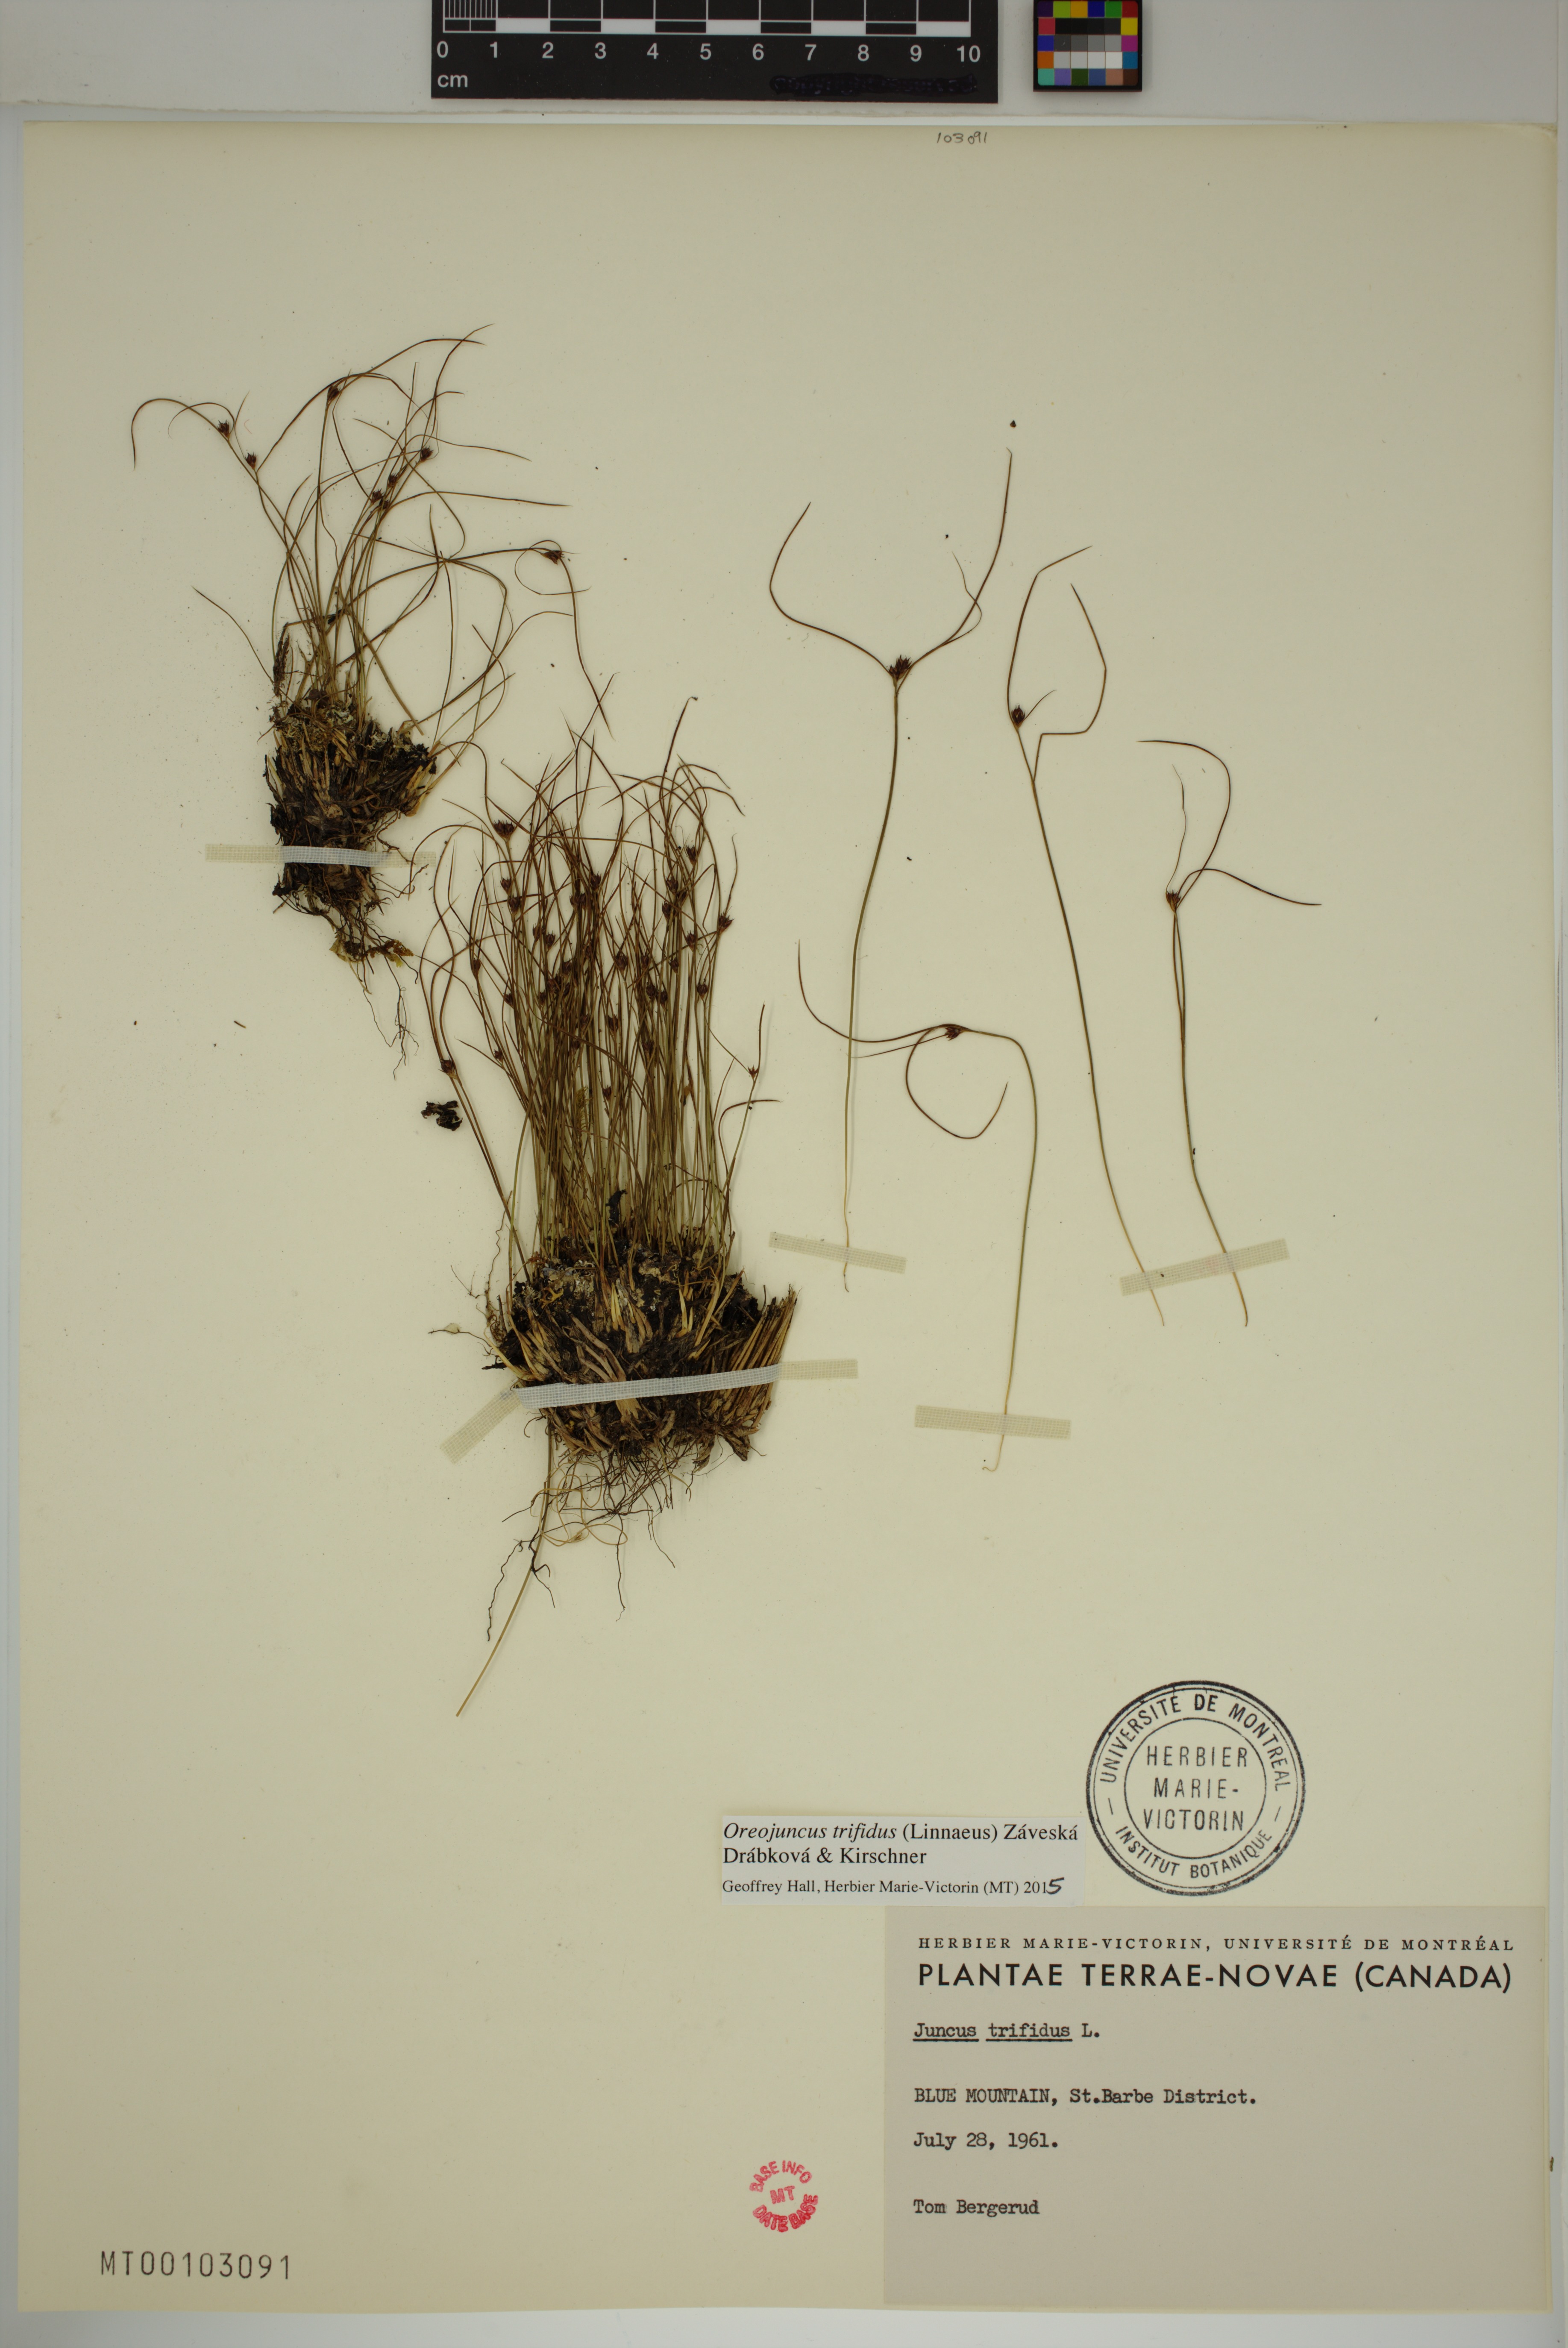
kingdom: Plantae
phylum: Tracheophyta
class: Liliopsida
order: Poales
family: Juncaceae
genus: Oreojuncus
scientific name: Oreojuncus trifidus
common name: Highland rush
